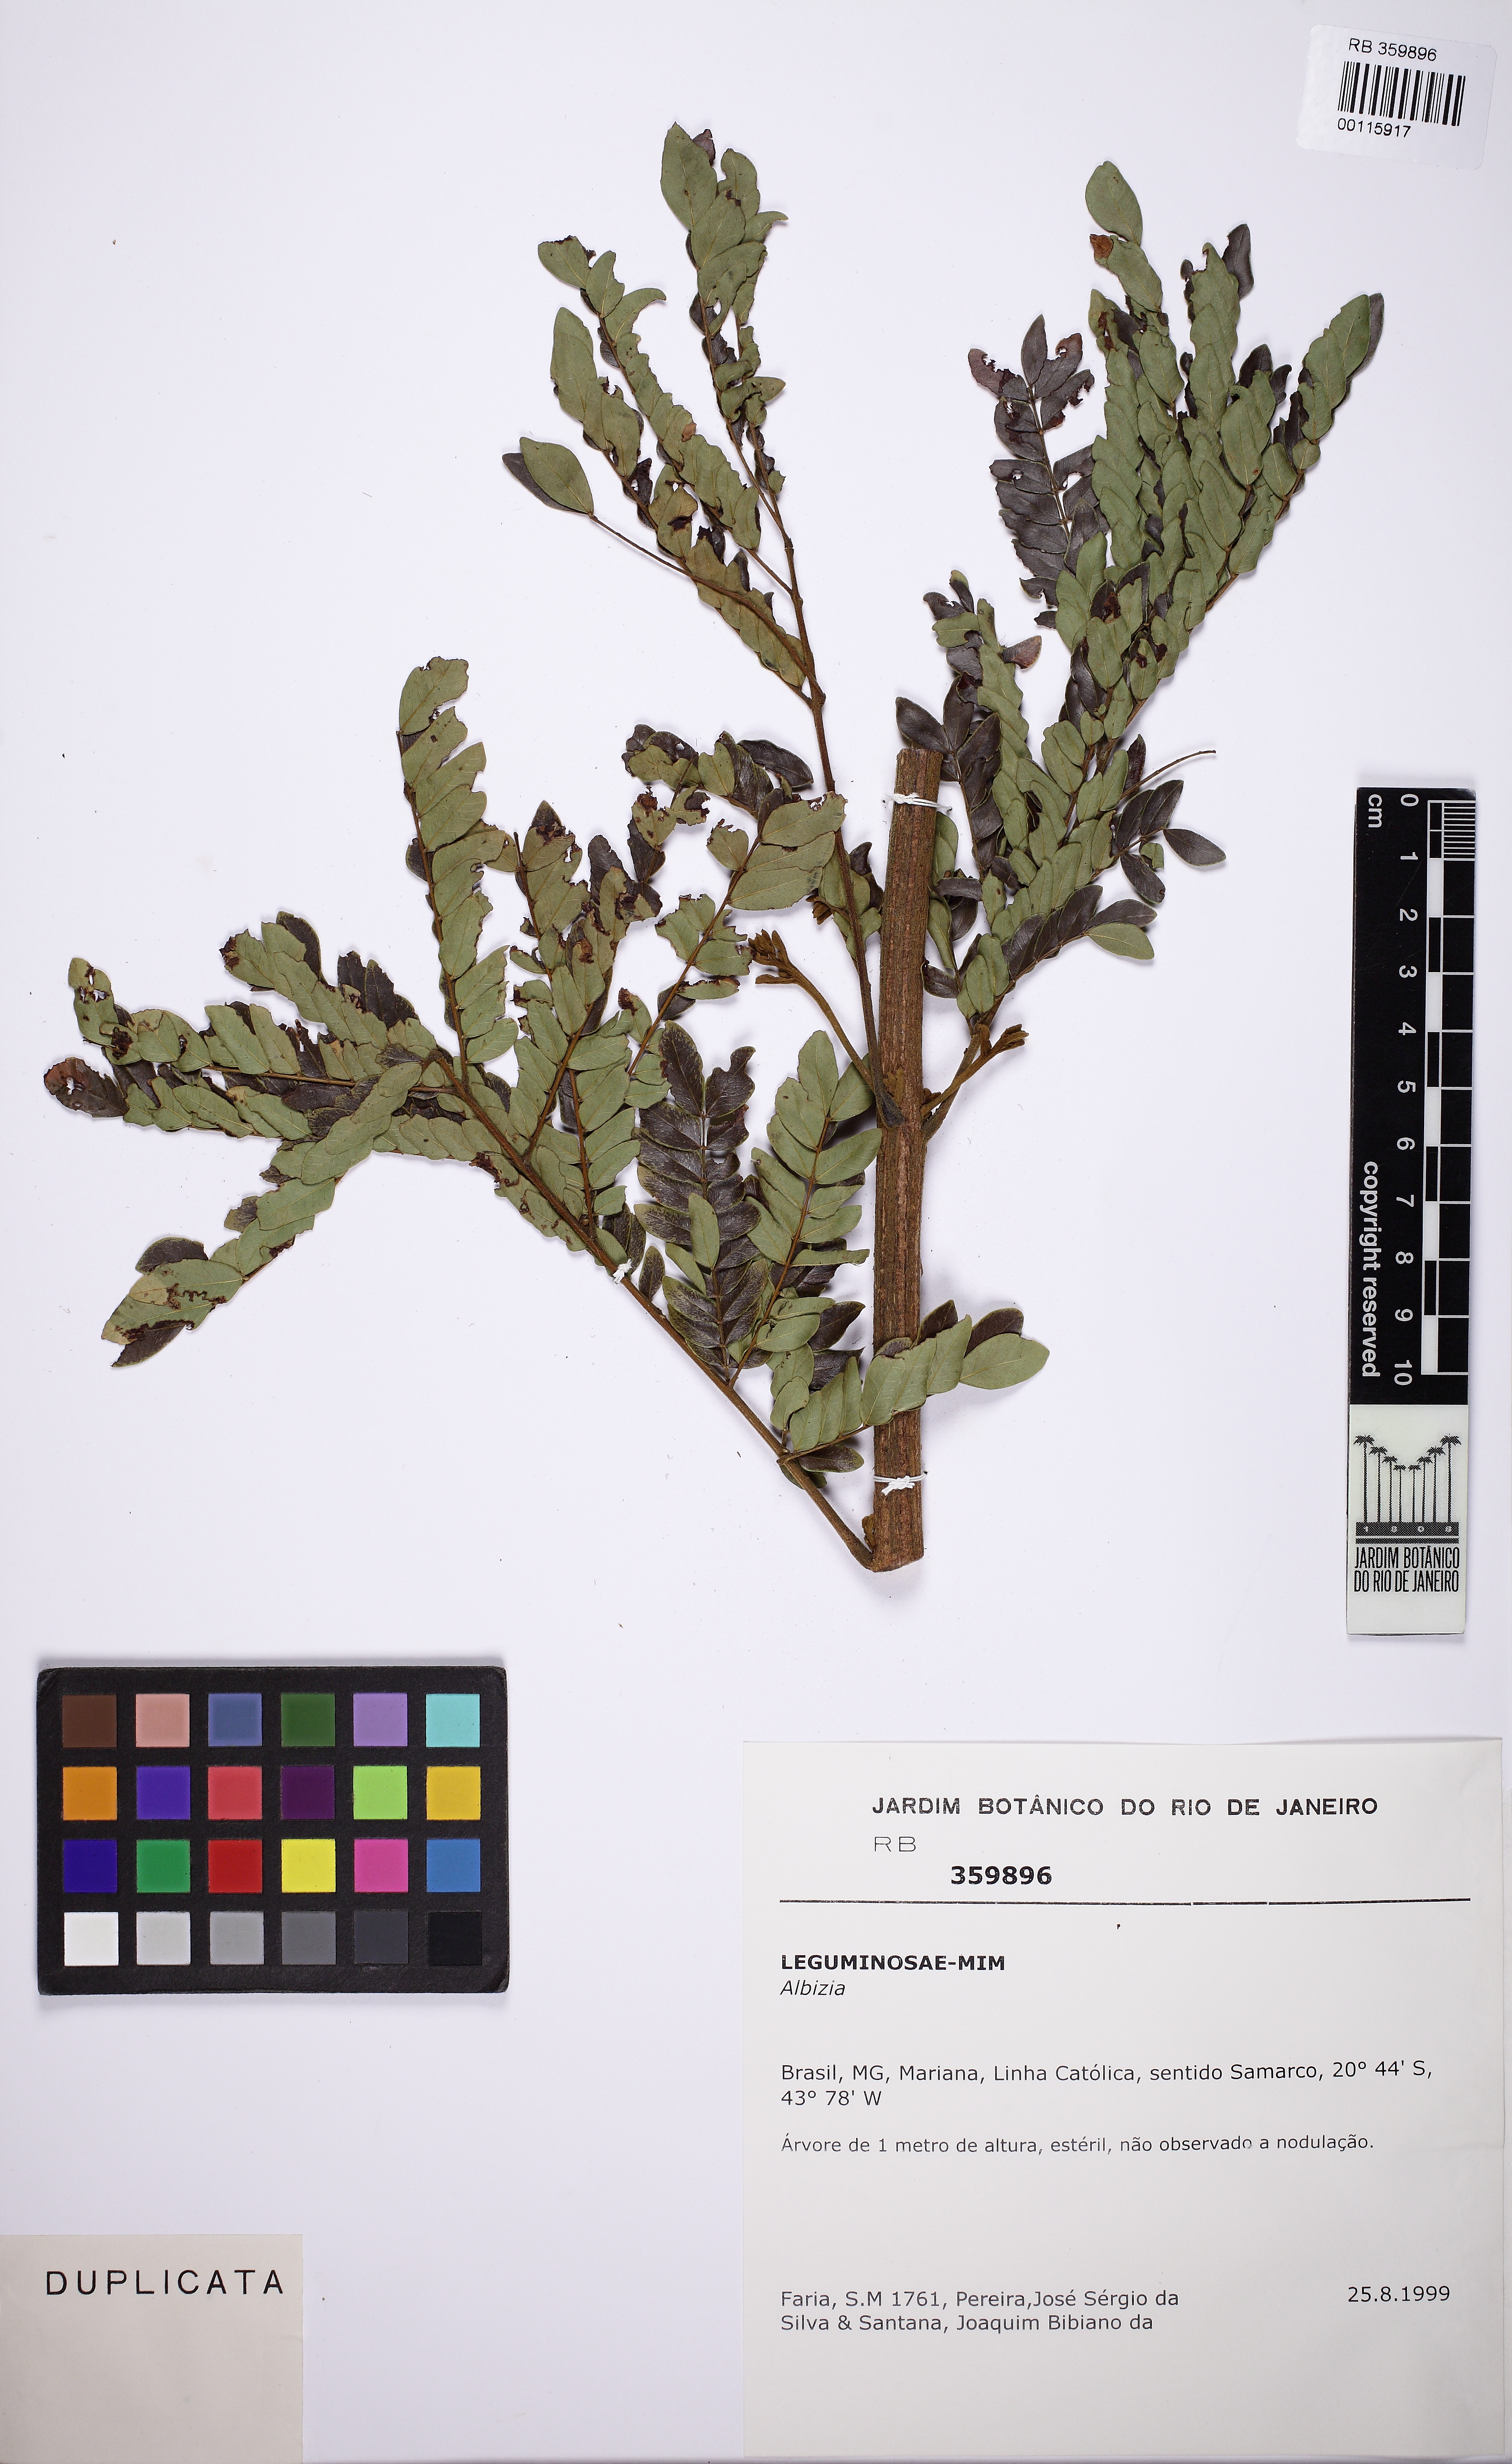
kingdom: Plantae
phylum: Tracheophyta
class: Magnoliopsida
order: Fabales
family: Fabaceae
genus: Albizia
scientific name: Albizia
